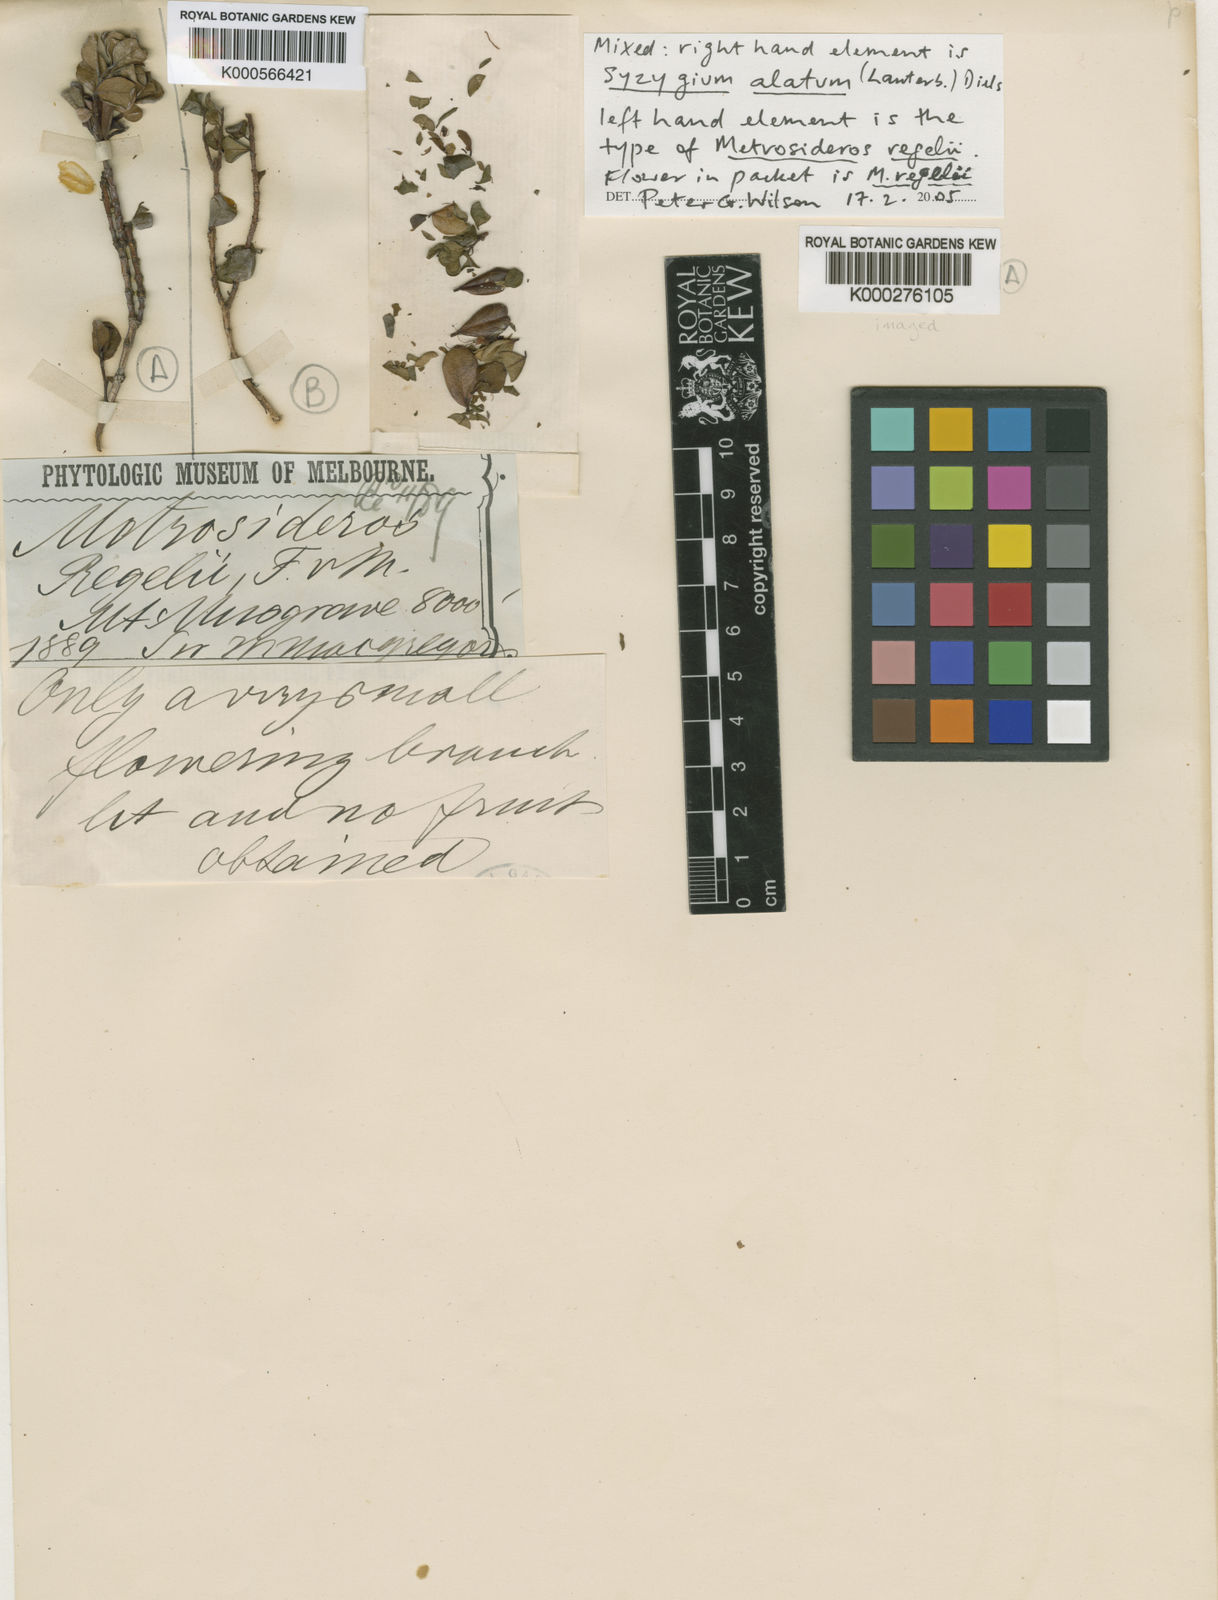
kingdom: Plantae
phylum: Tracheophyta
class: Magnoliopsida
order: Myrtales
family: Myrtaceae
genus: Metrosideros
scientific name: Metrosideros regelii
